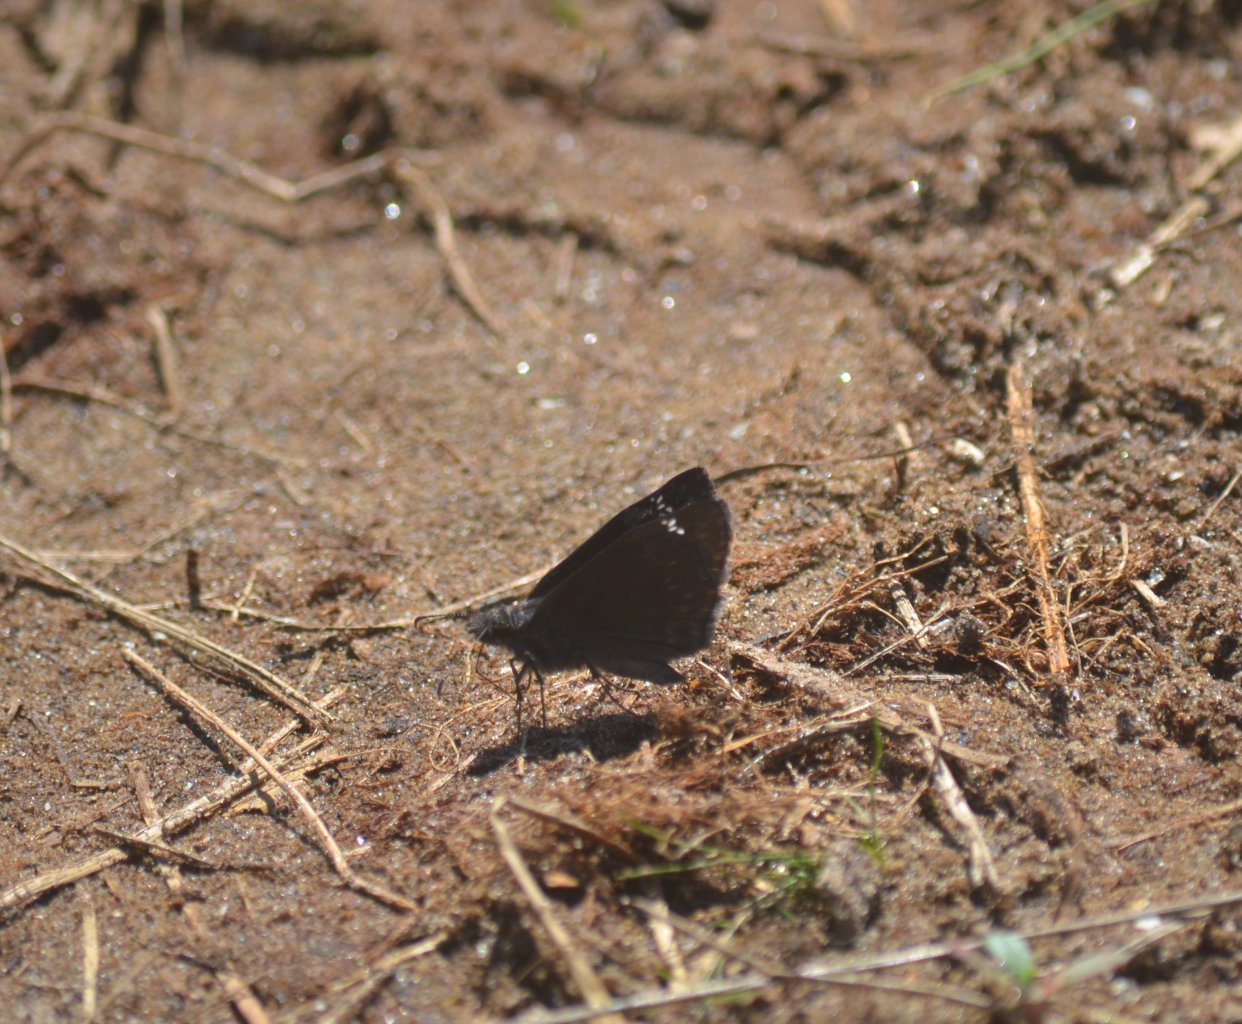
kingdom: Animalia
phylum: Arthropoda
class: Insecta
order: Lepidoptera
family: Hesperiidae
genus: Gesta
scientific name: Gesta
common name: Wild Indigo Duskywing
